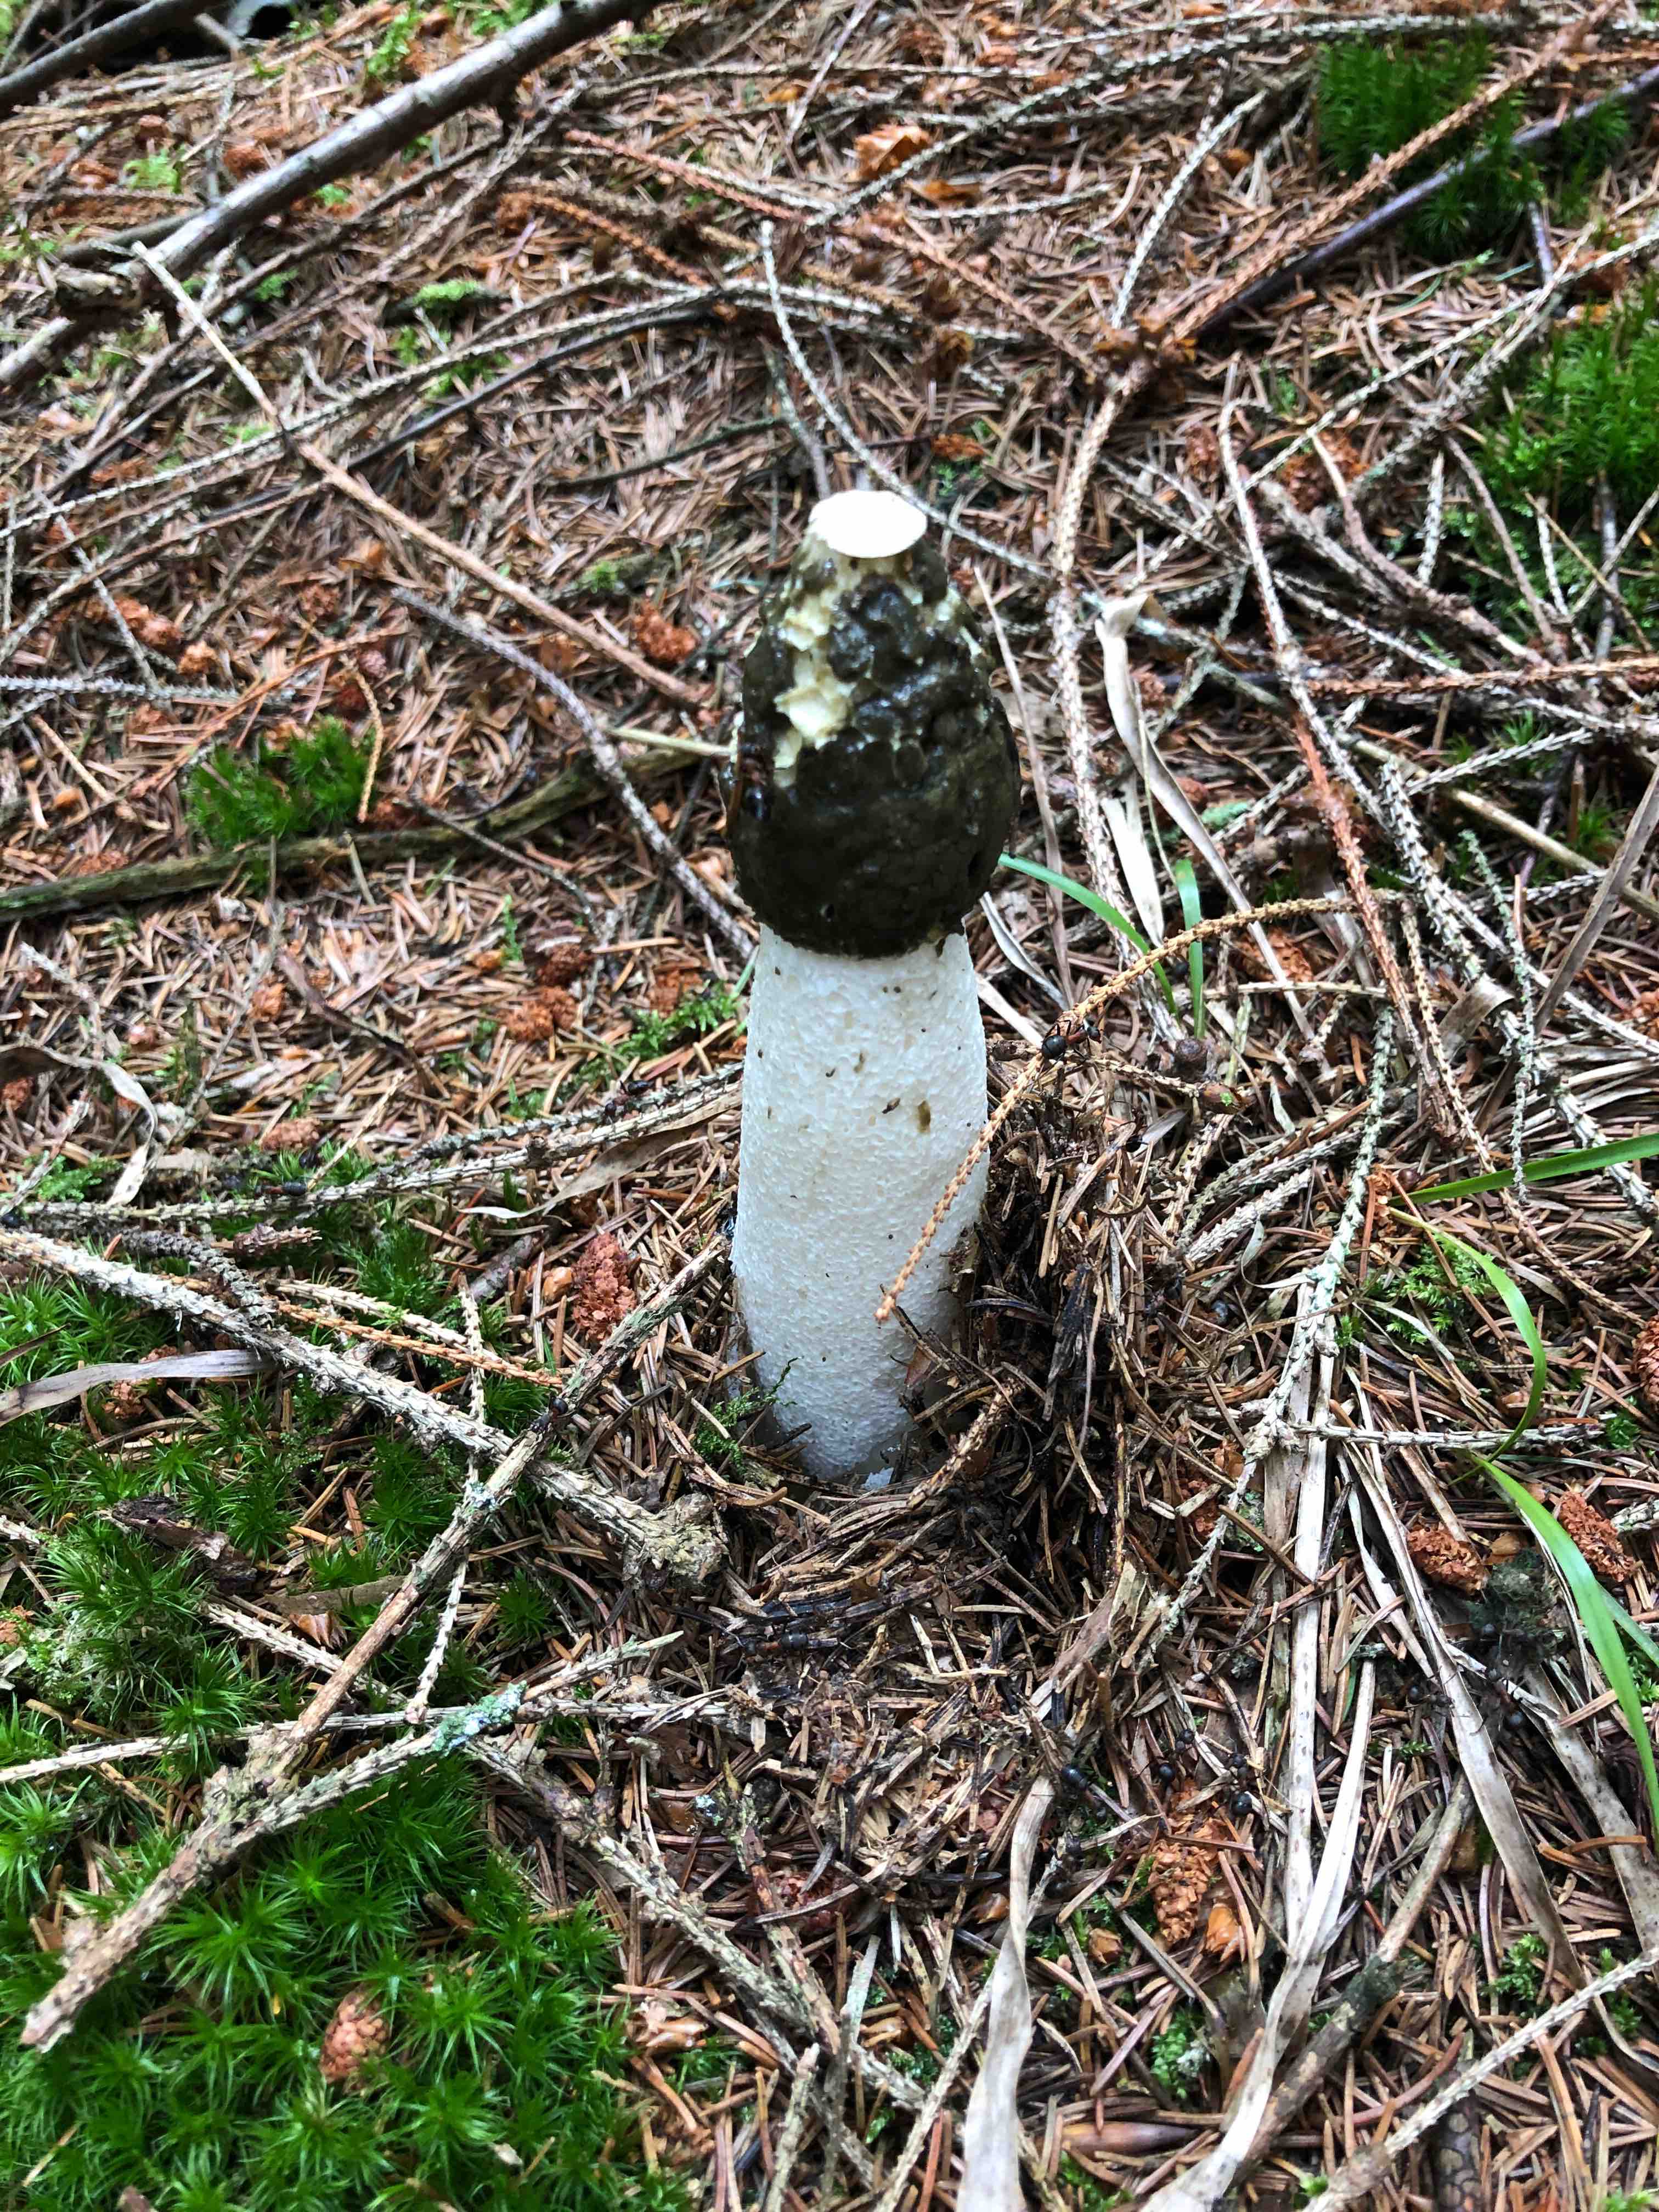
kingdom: Fungi
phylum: Basidiomycota
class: Agaricomycetes
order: Phallales
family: Phallaceae
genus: Phallus
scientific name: Phallus impudicus
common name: almindelig stinksvamp
